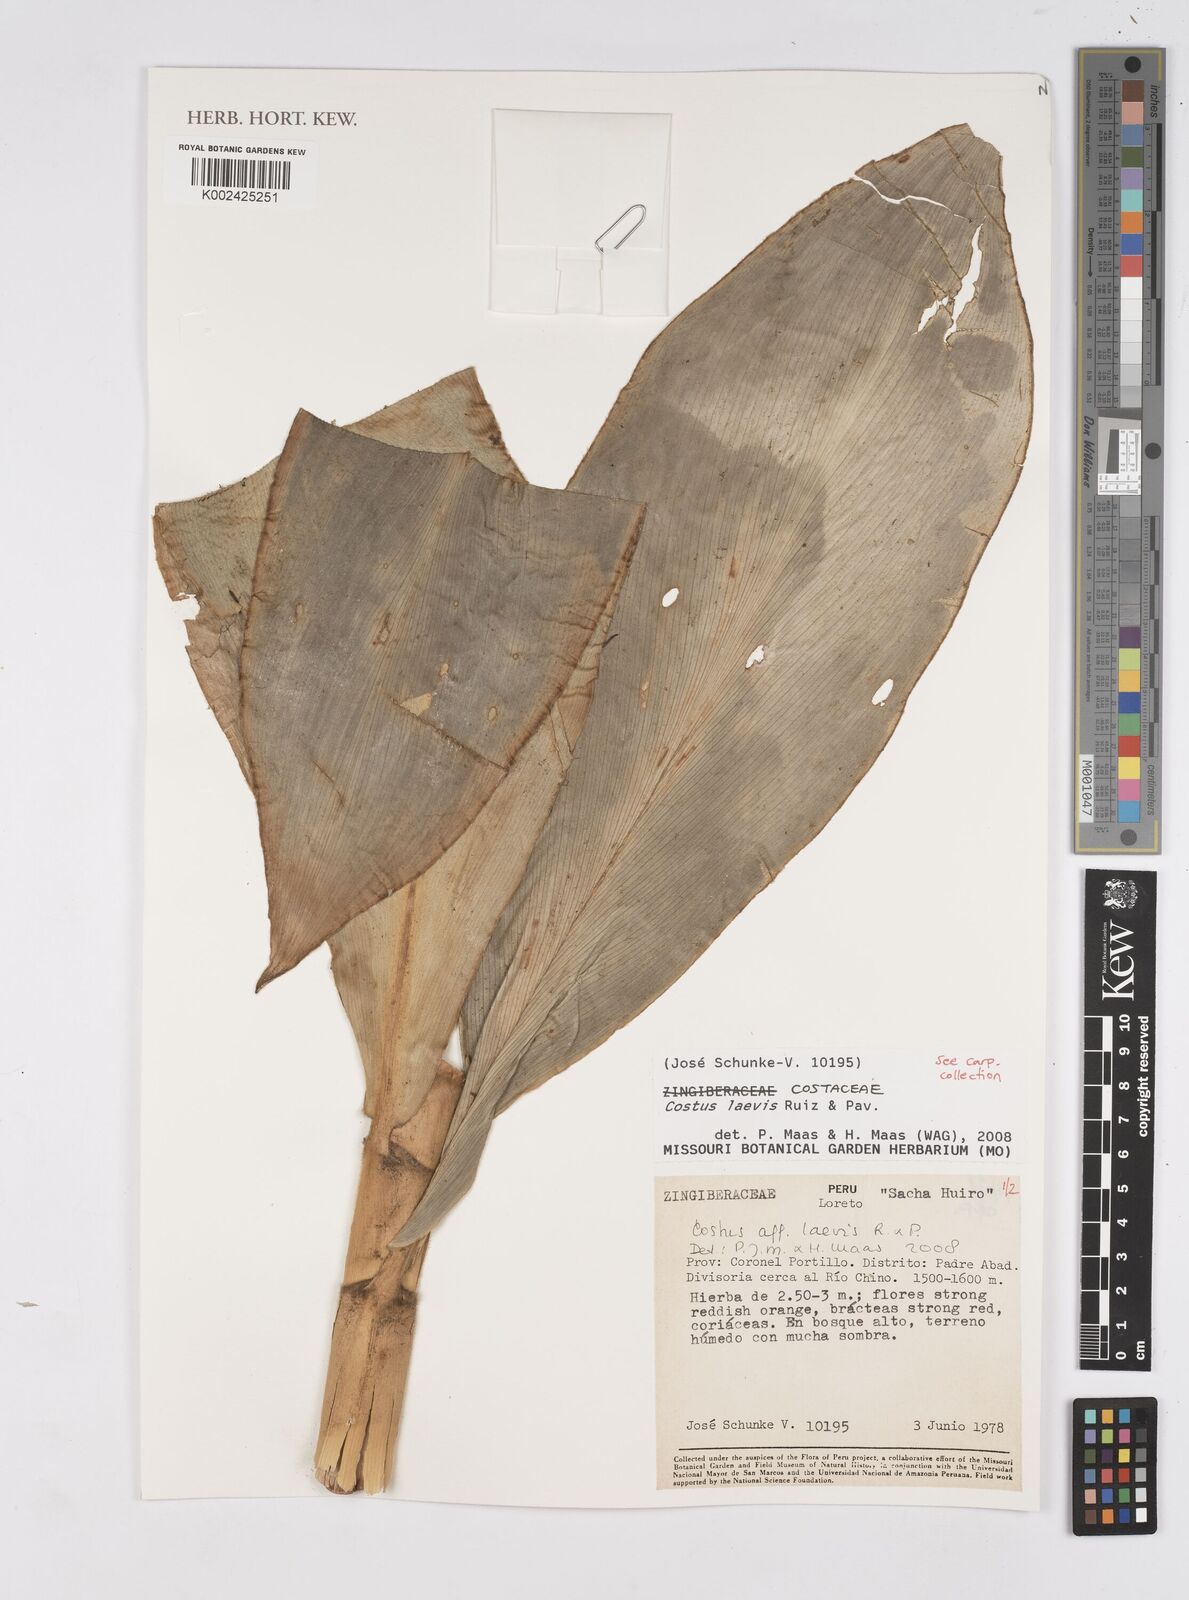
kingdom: Plantae
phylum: Tracheophyta
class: Liliopsida
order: Zingiberales
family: Costaceae
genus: Costus
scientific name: Costus laevis
